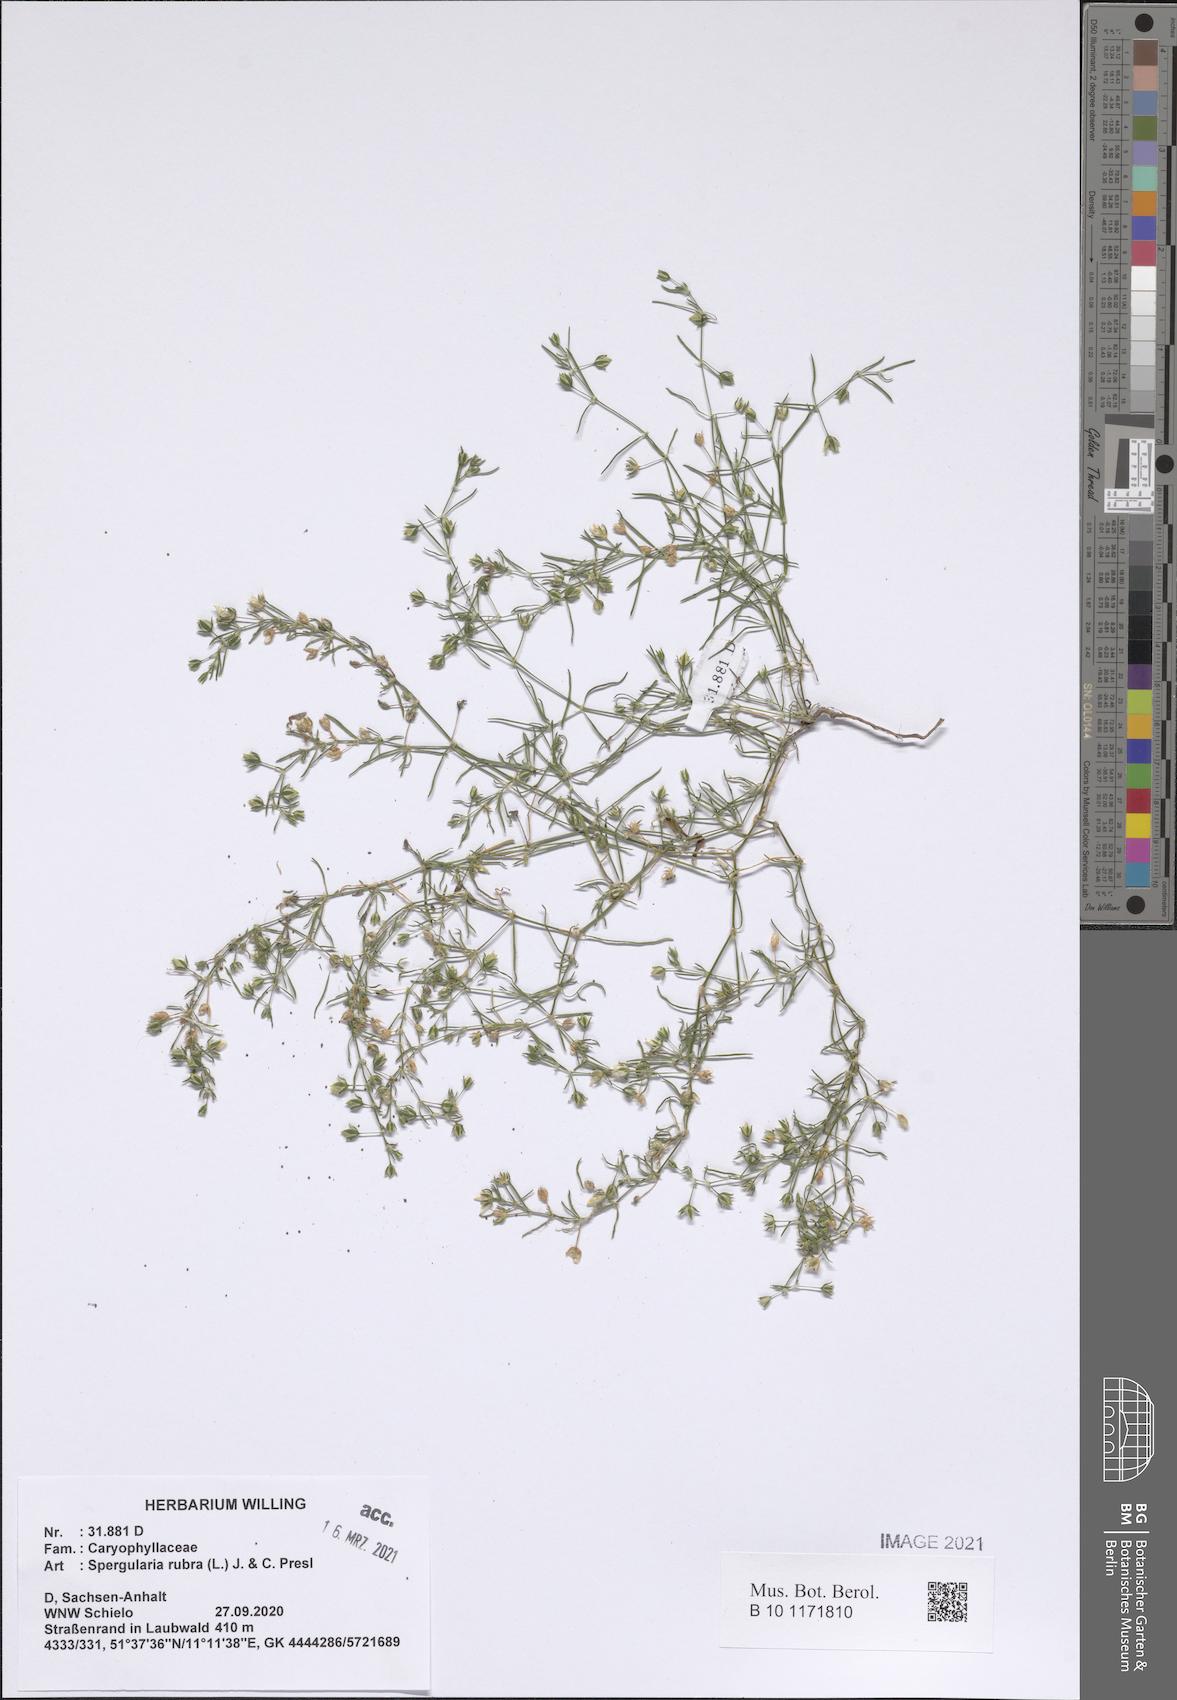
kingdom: Plantae
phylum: Tracheophyta
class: Magnoliopsida
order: Caryophyllales
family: Caryophyllaceae
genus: Spergularia
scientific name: Spergularia rubra
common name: Red sand-spurrey
